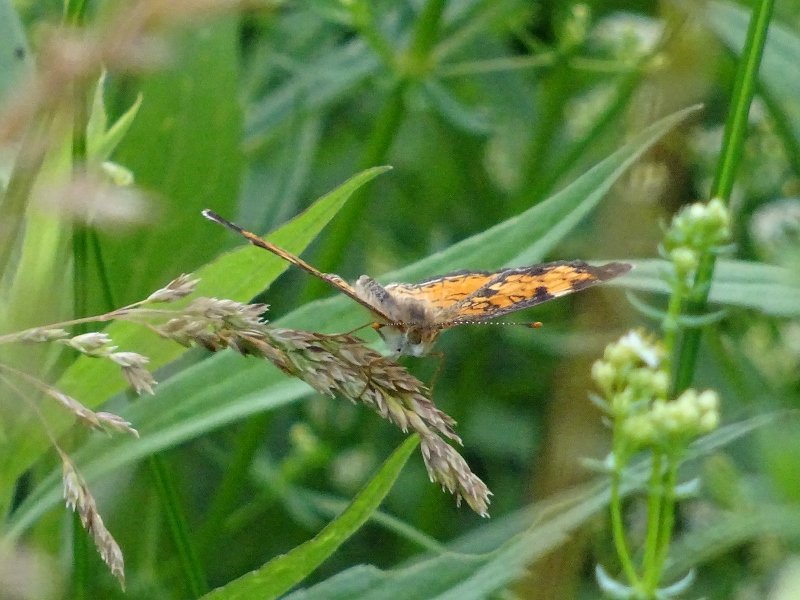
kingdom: Animalia
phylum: Arthropoda
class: Insecta
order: Lepidoptera
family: Nymphalidae
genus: Phyciodes
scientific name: Phyciodes tharos
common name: Northern Crescent
